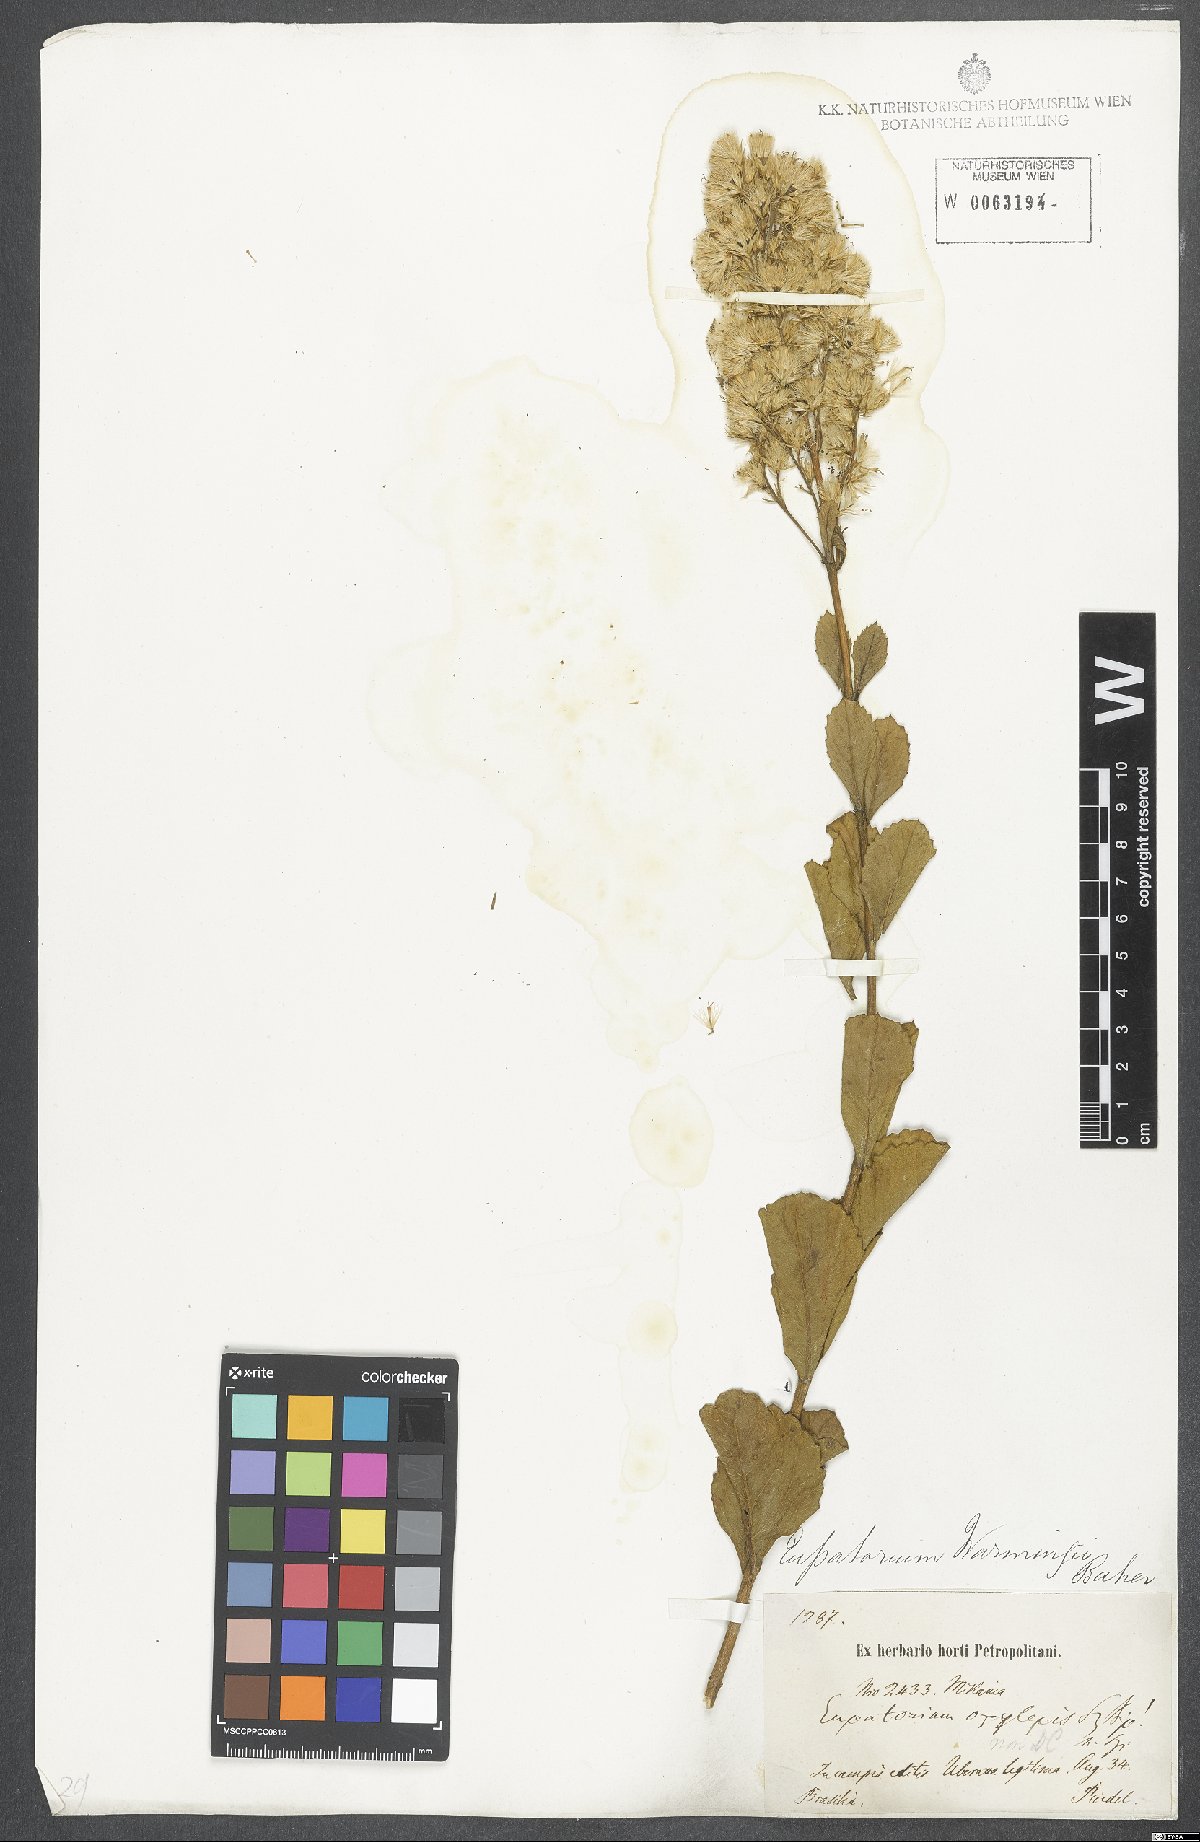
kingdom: Plantae
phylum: Tracheophyta
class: Magnoliopsida
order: Asterales
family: Asteraceae
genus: Stomatanthes
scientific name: Stomatanthes
